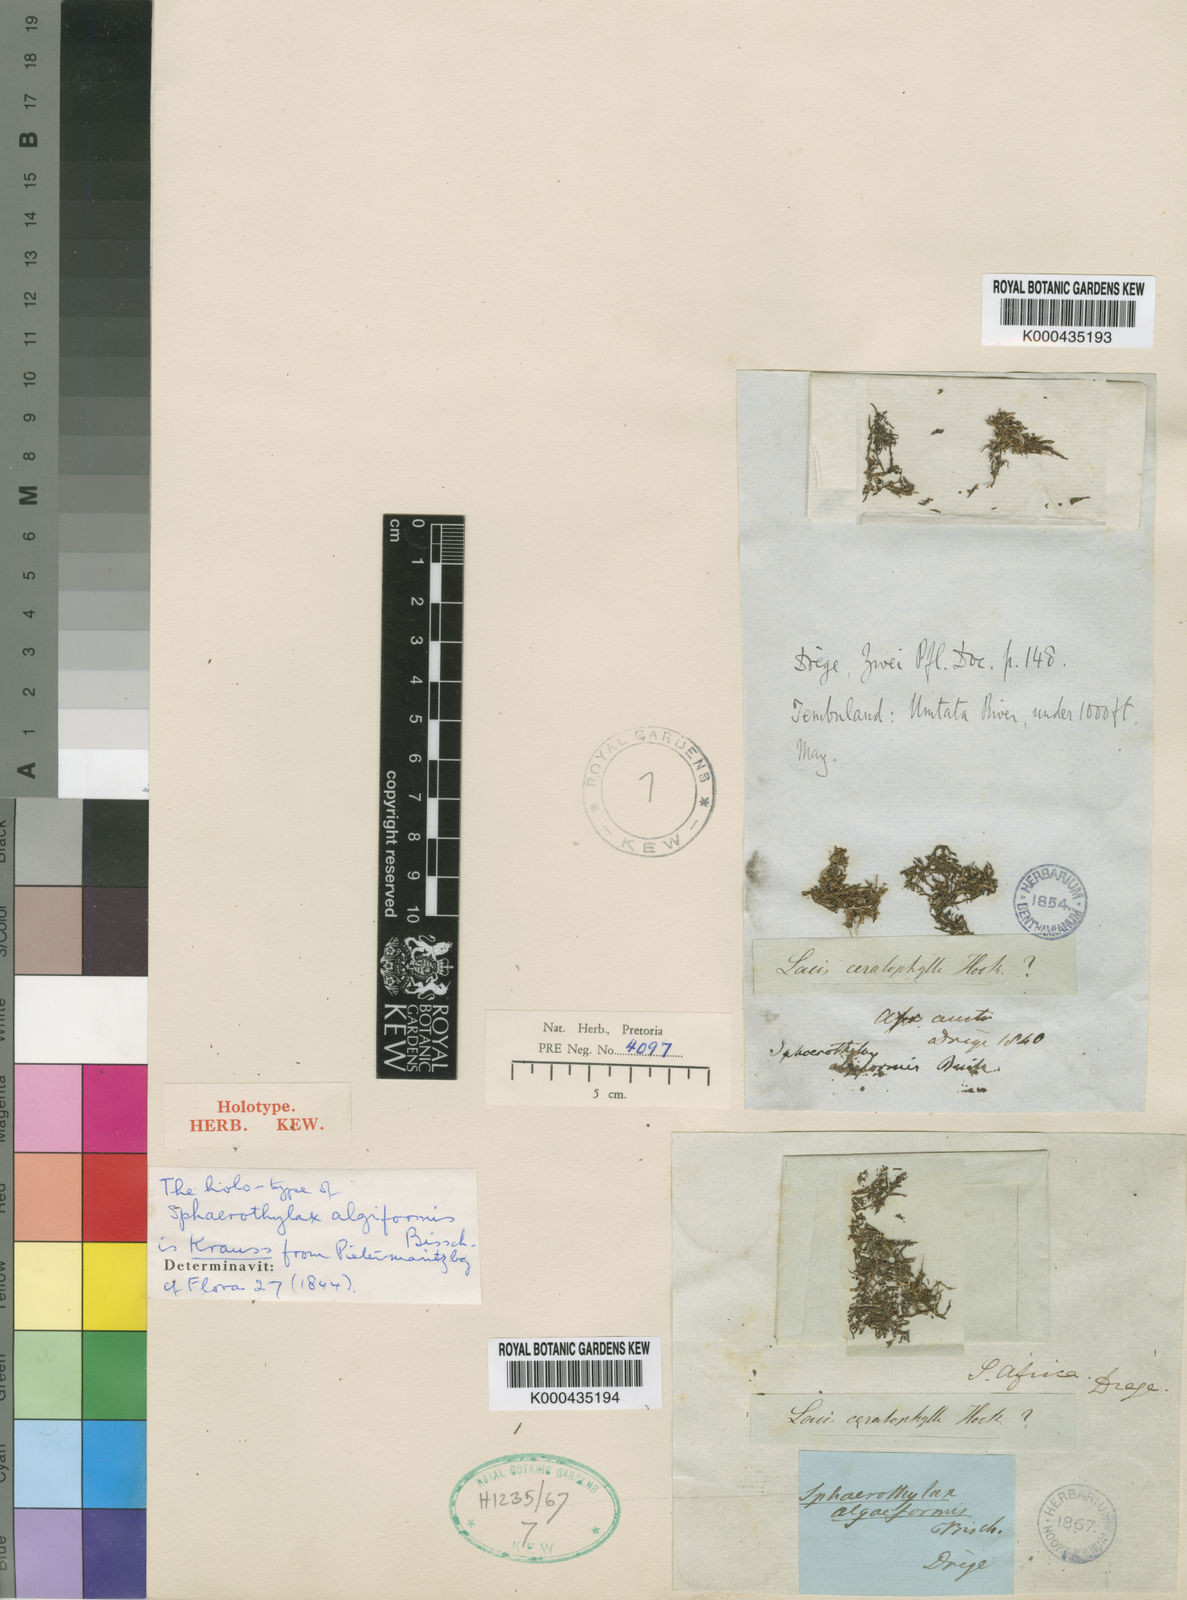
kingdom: Plantae
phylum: Tracheophyta
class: Magnoliopsida
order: Malpighiales
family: Podostemaceae
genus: Sphaerothylax
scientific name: Sphaerothylax algiformis
